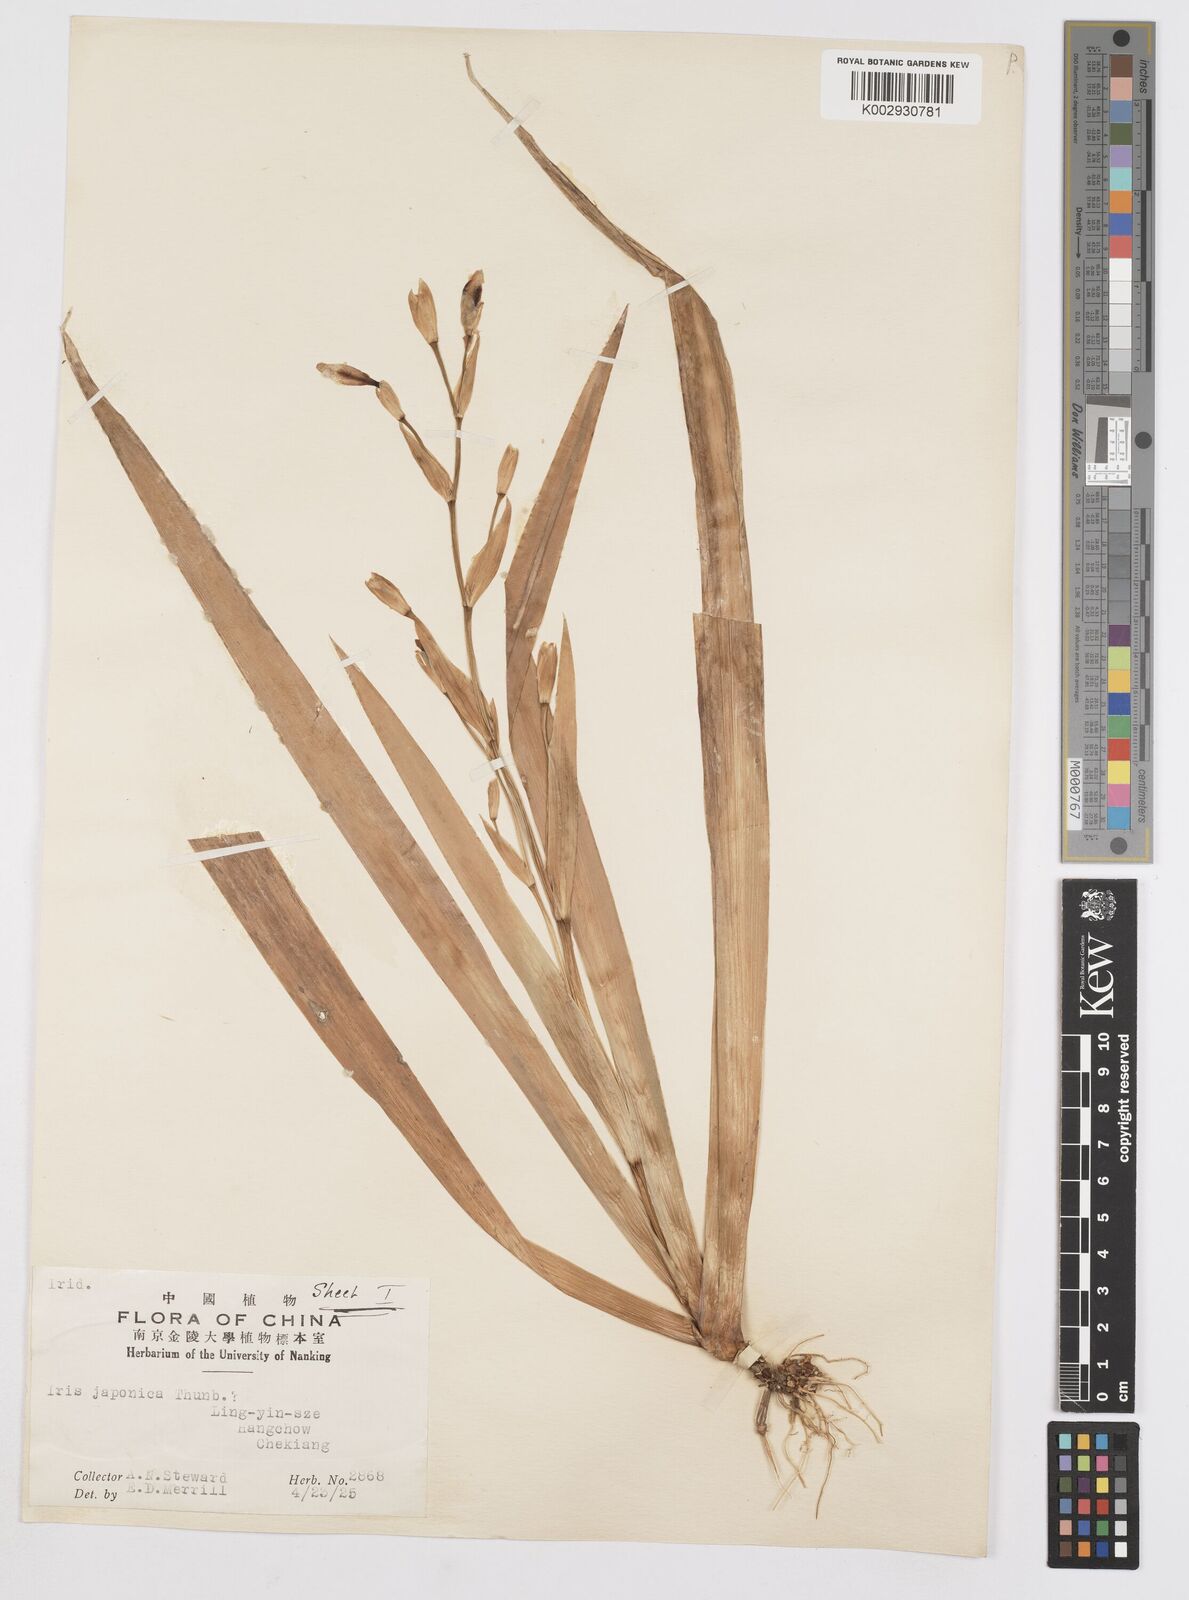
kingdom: Plantae
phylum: Tracheophyta
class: Liliopsida
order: Asparagales
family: Iridaceae
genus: Iris
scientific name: Iris japonica
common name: Butterfly-flower
